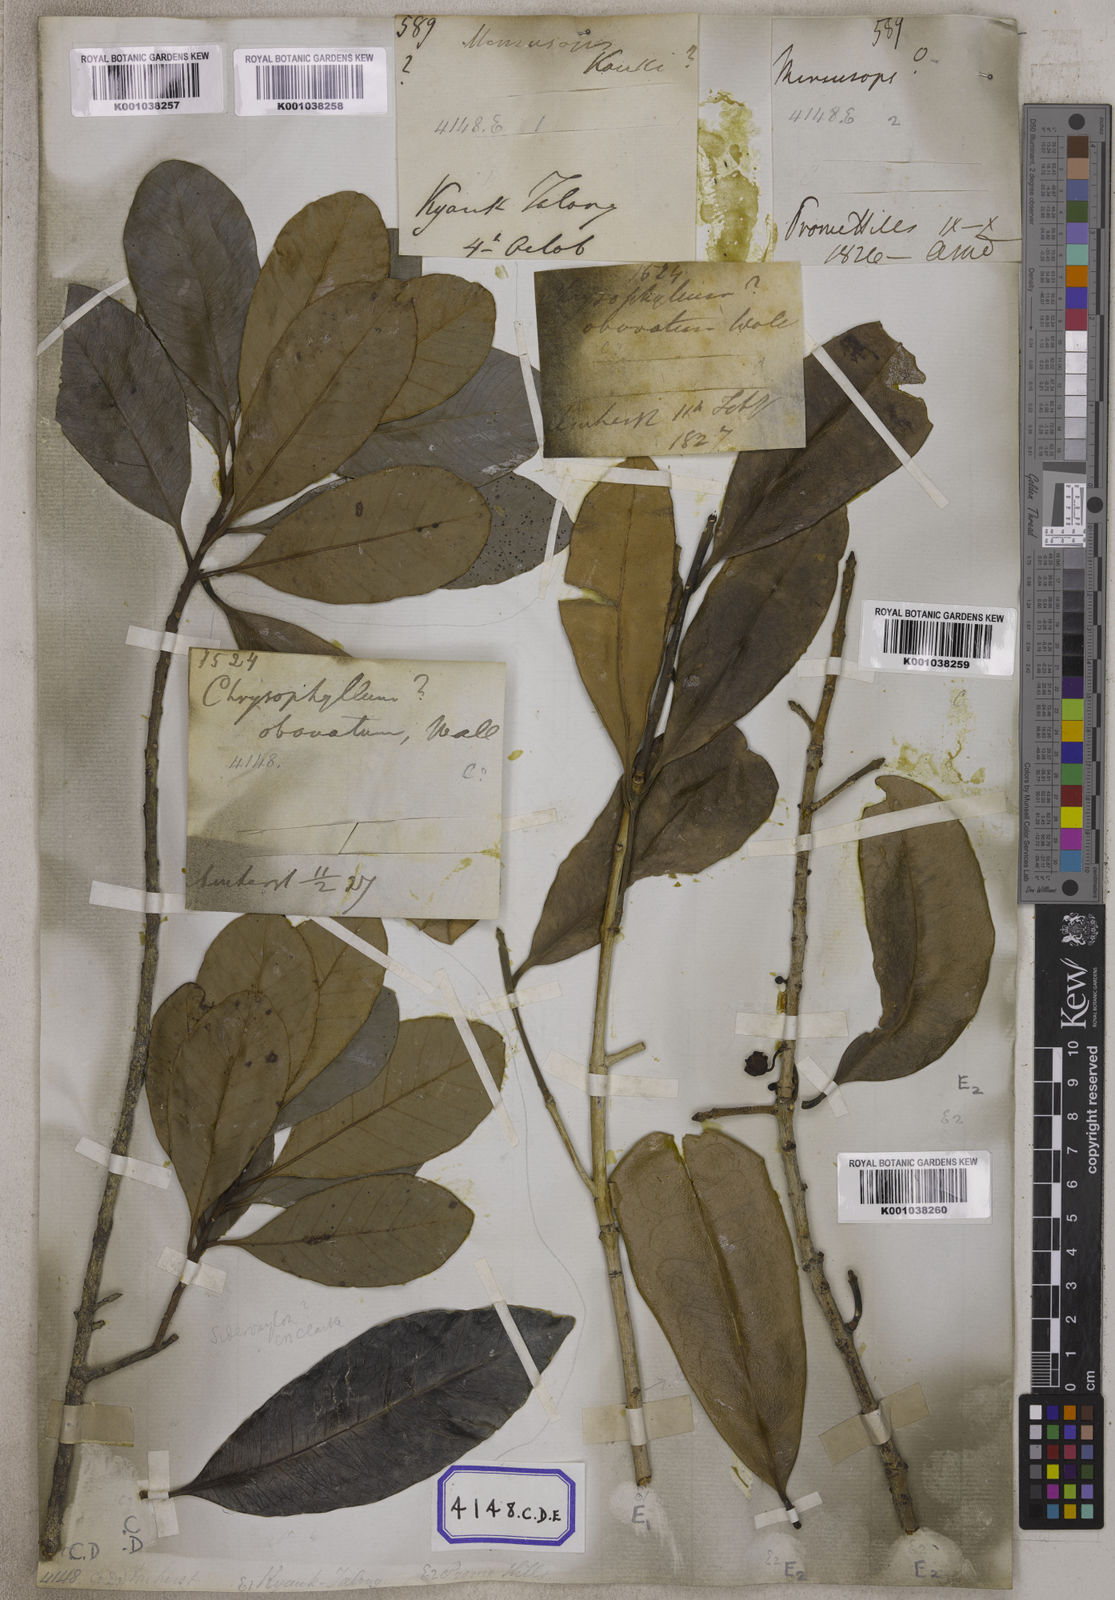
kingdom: Plantae
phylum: Tracheophyta
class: Magnoliopsida
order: Ericales
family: Sapotaceae
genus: Mimusops
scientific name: Mimusops
